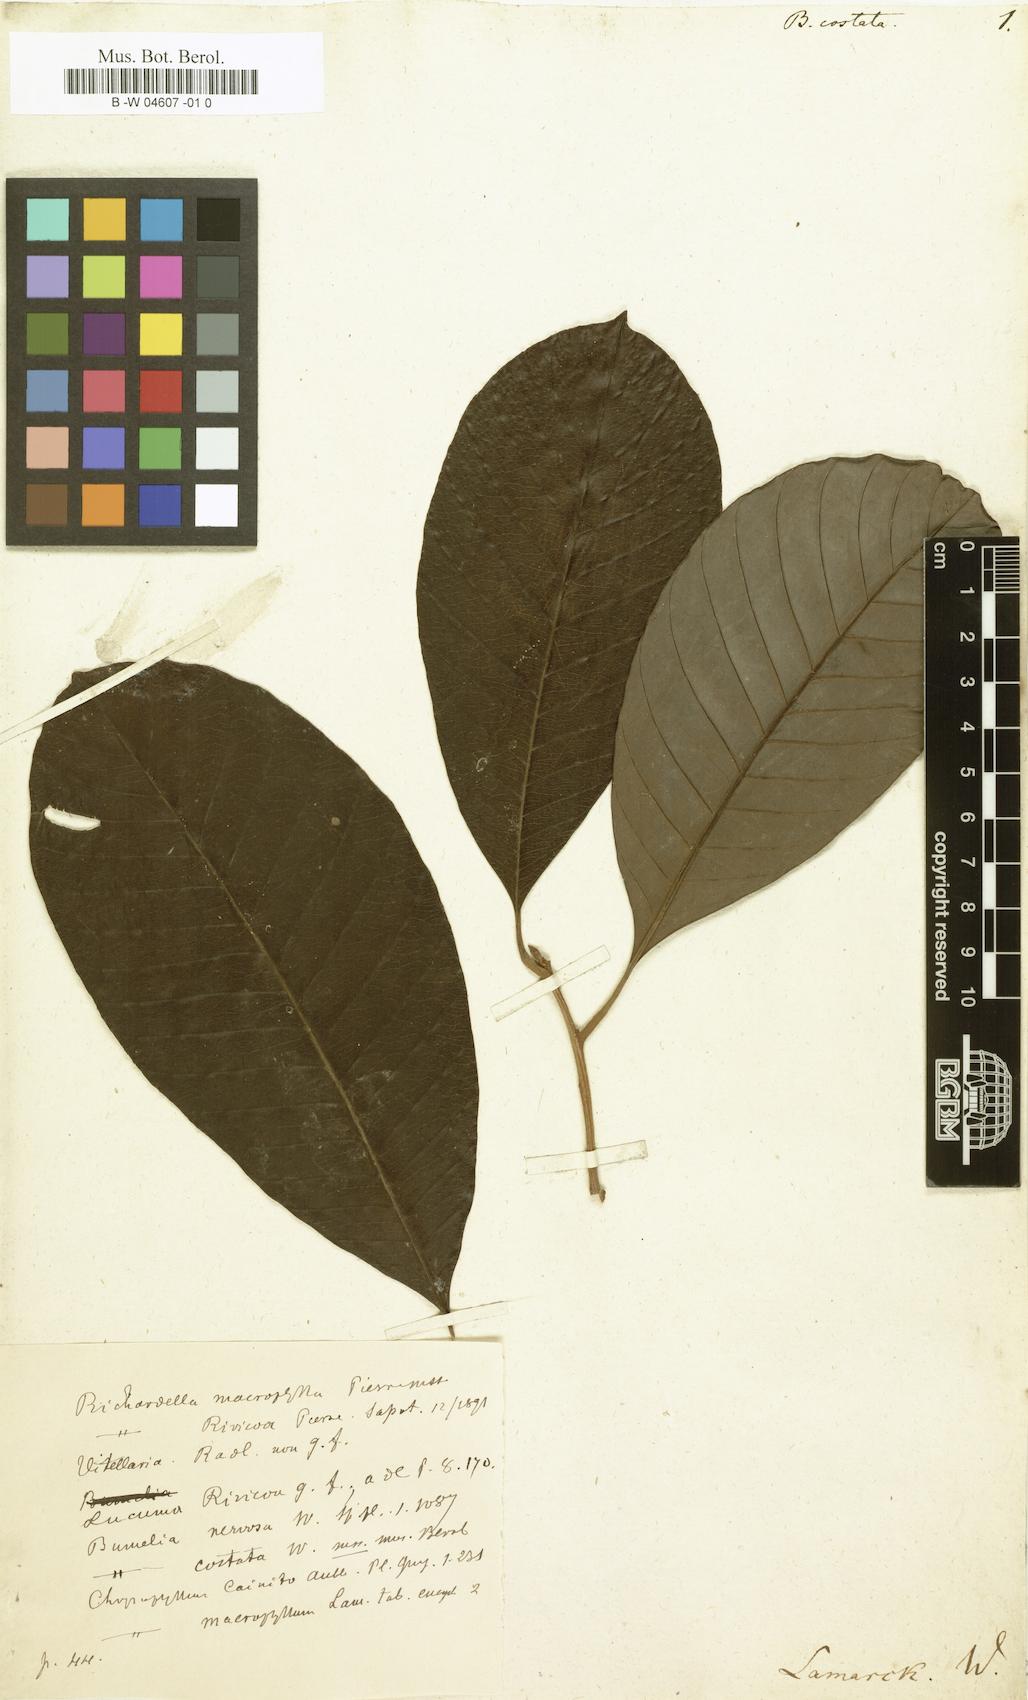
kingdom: Plantae
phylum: Tracheophyta
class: Magnoliopsida
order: Ericales
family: Sapotaceae
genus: Sideroxylon
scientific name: Sideroxylon
